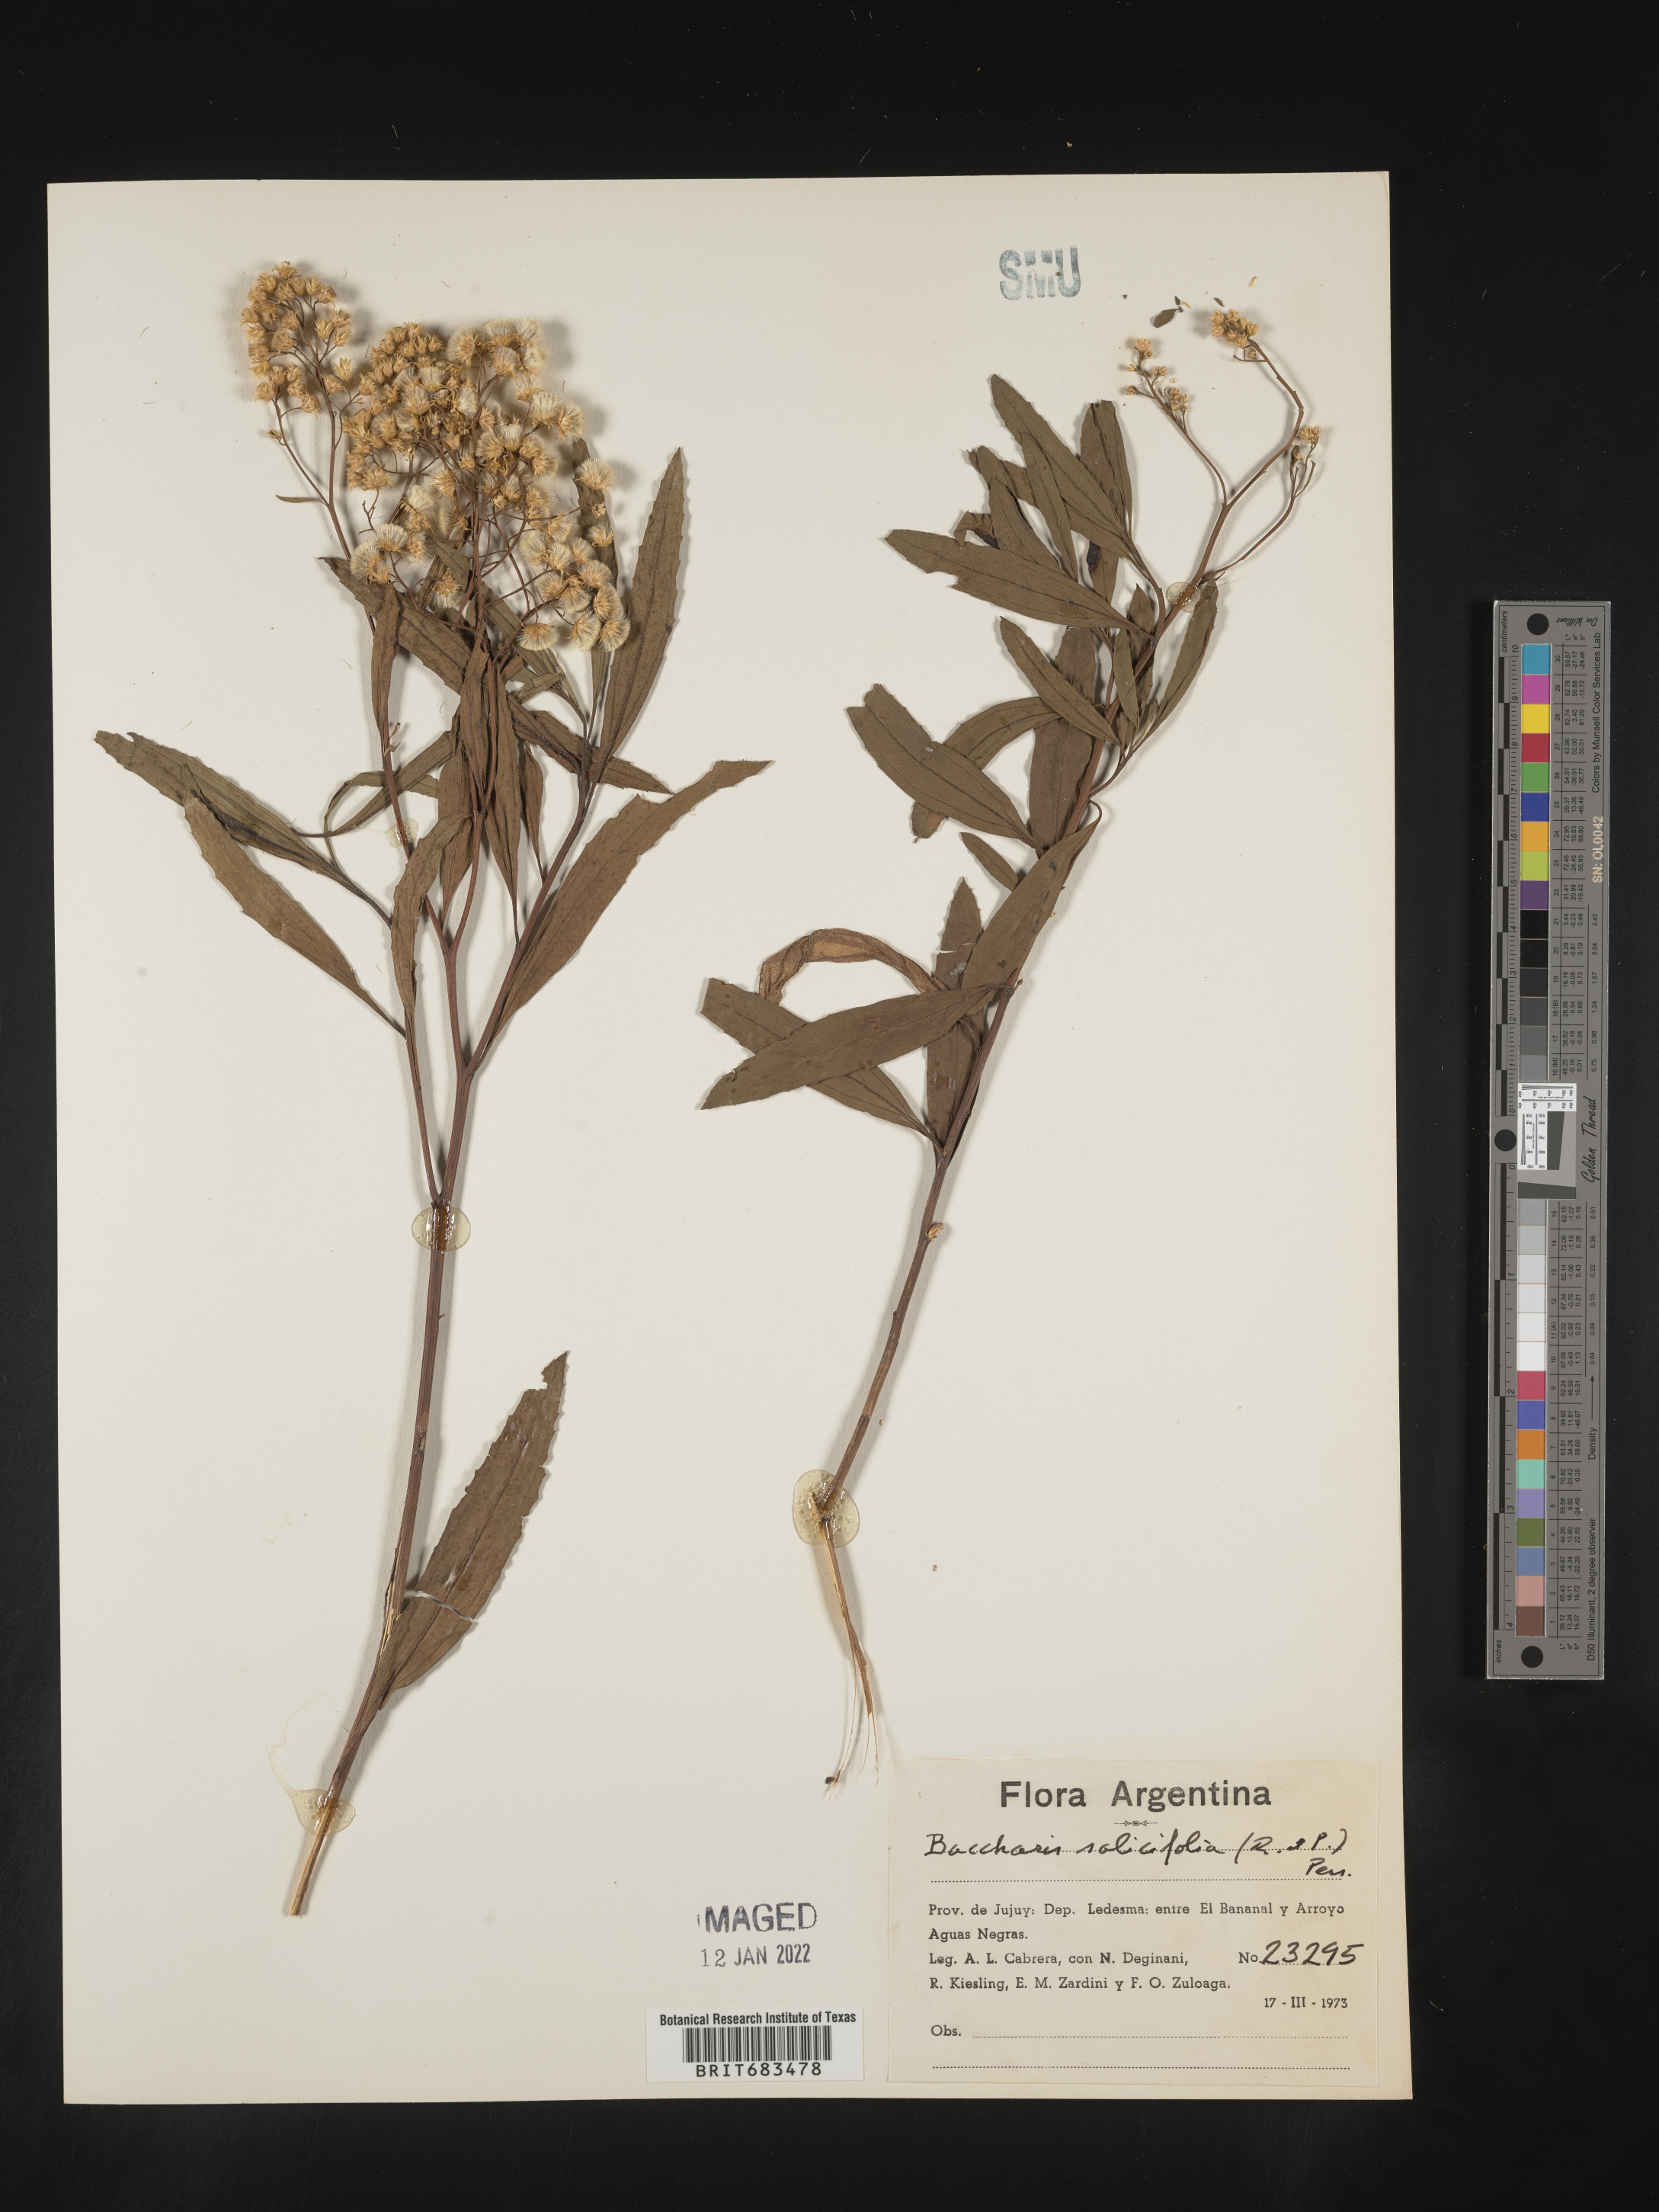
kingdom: Plantae
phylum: Tracheophyta
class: Magnoliopsida
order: Asterales
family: Asteraceae
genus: Baccharis
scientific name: Baccharis
